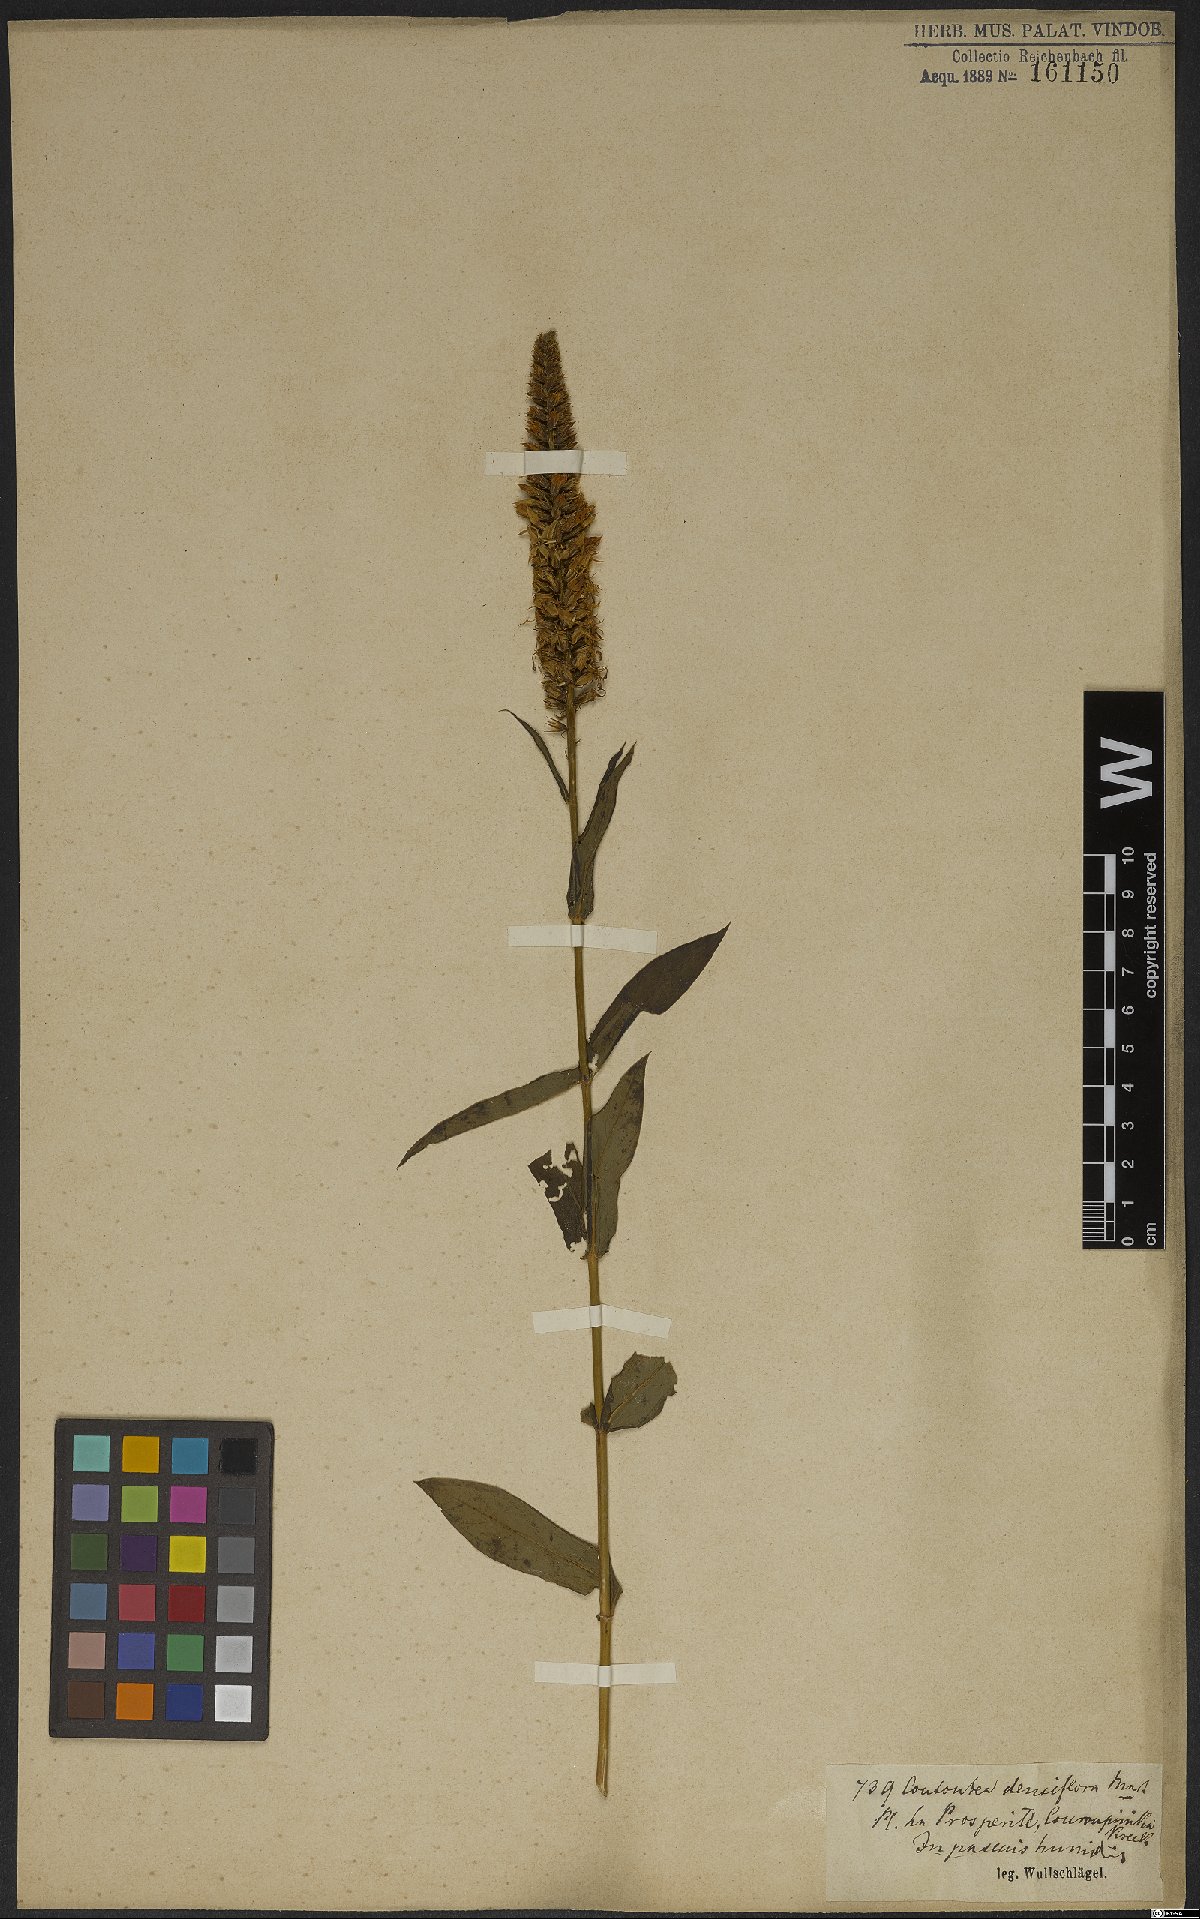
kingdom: Plantae
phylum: Tracheophyta
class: Magnoliopsida
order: Gentianales
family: Gentianaceae
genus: Coutoubea
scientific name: Coutoubea spicata
